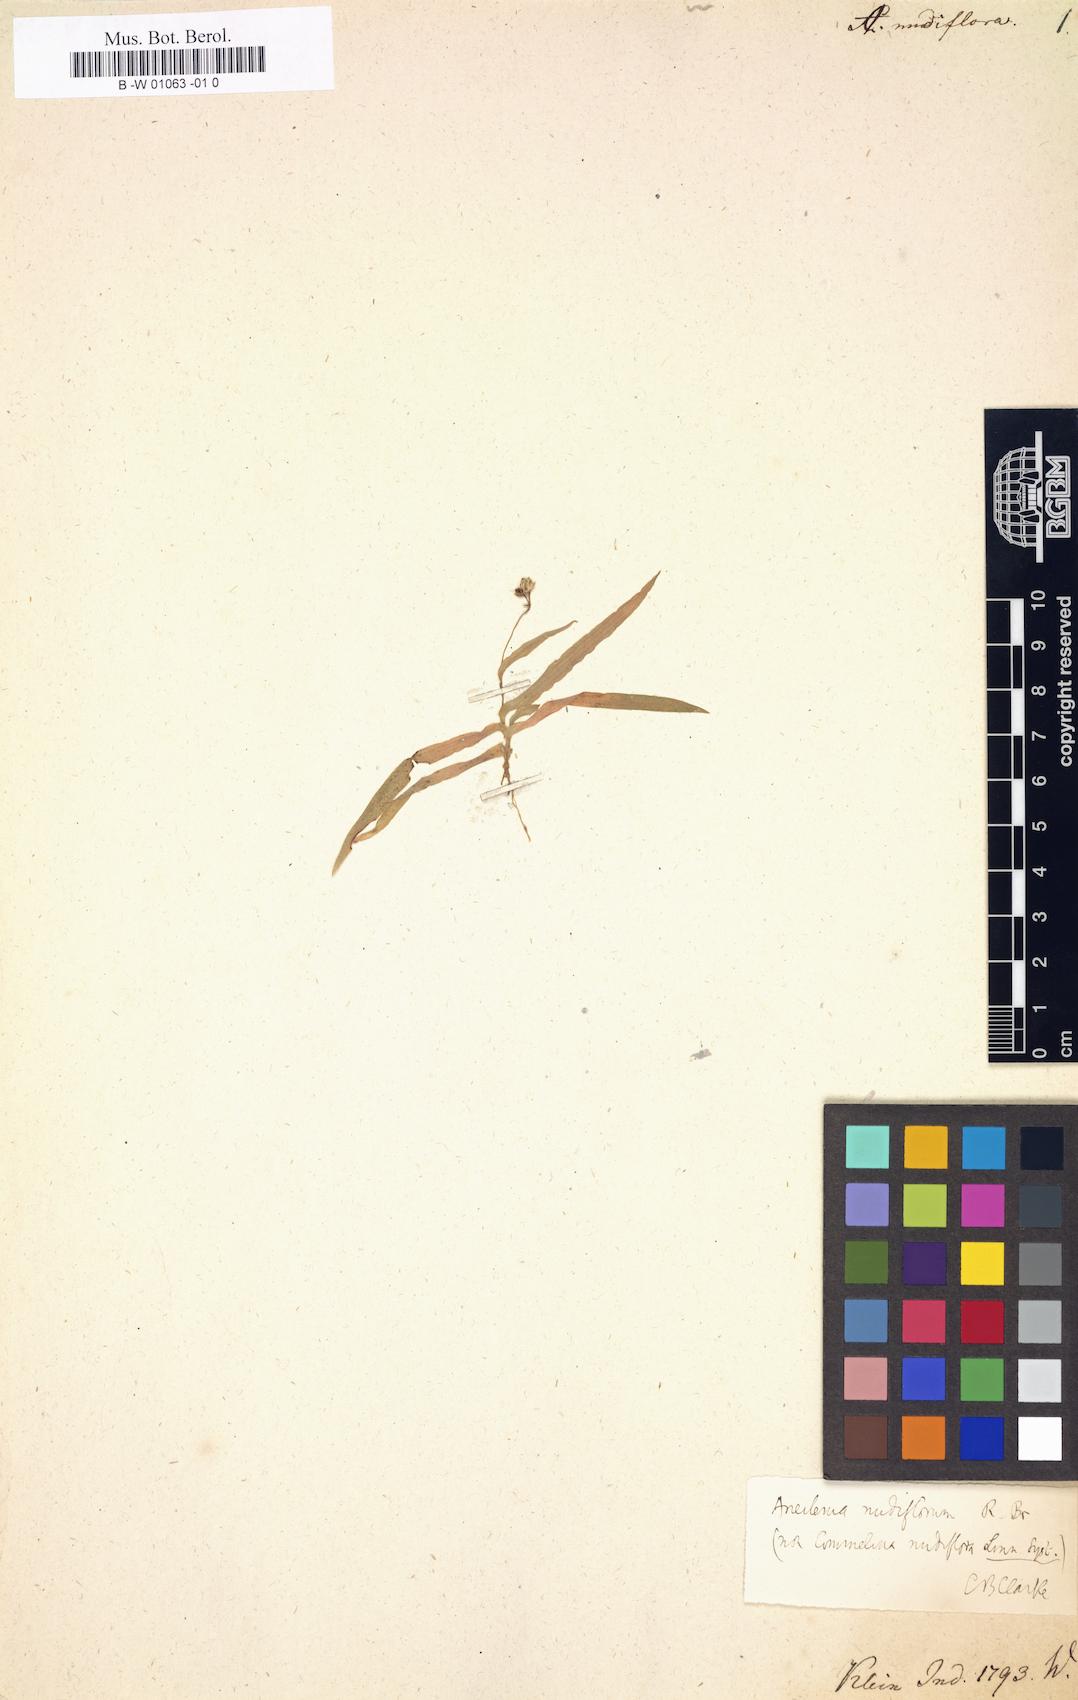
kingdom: Plantae
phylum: Tracheophyta
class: Liliopsida
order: Commelinales
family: Commelinaceae
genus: Aneilema
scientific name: Aneilema nudiflorum
